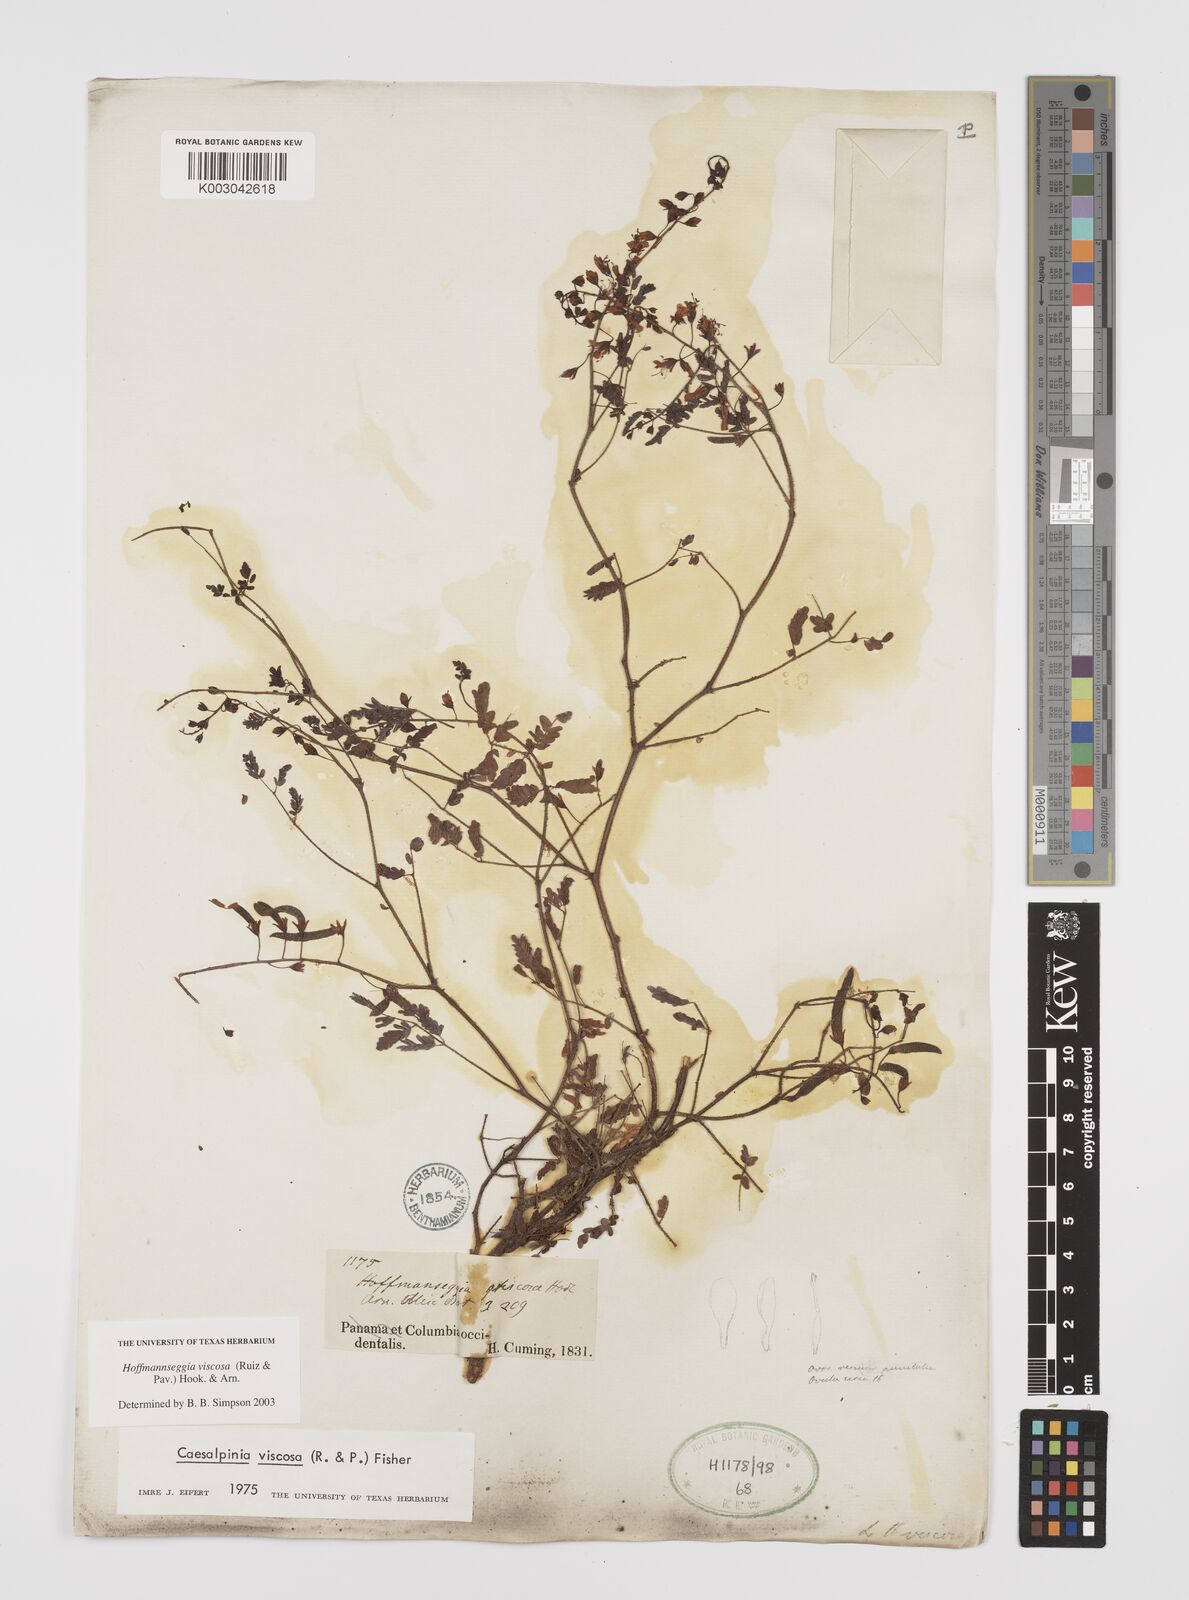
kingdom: Plantae
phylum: Tracheophyta
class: Magnoliopsida
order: Fabales
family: Fabaceae
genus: Hoffmannseggia
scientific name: Hoffmannseggia viscosa
